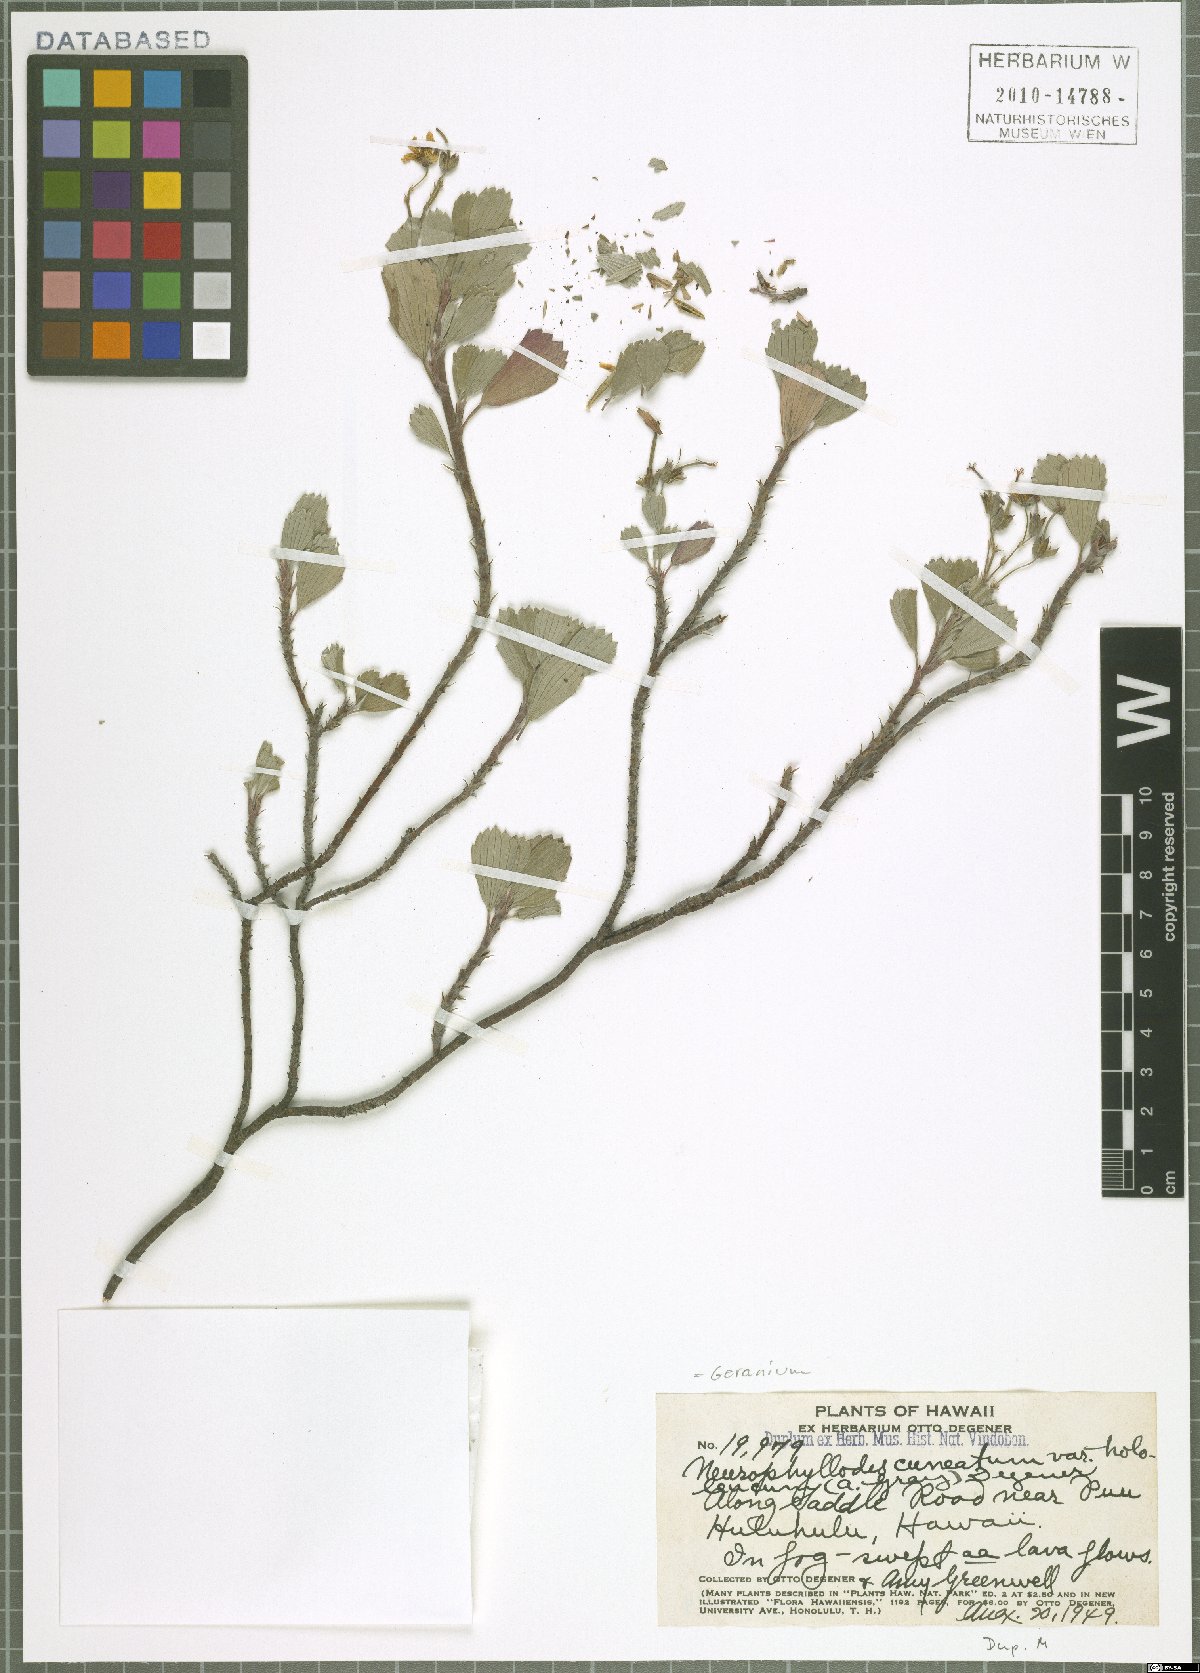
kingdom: Plantae
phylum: Tracheophyta
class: Magnoliopsida
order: Geraniales
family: Geraniaceae
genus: Geranium
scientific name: Geranium cuneatum
